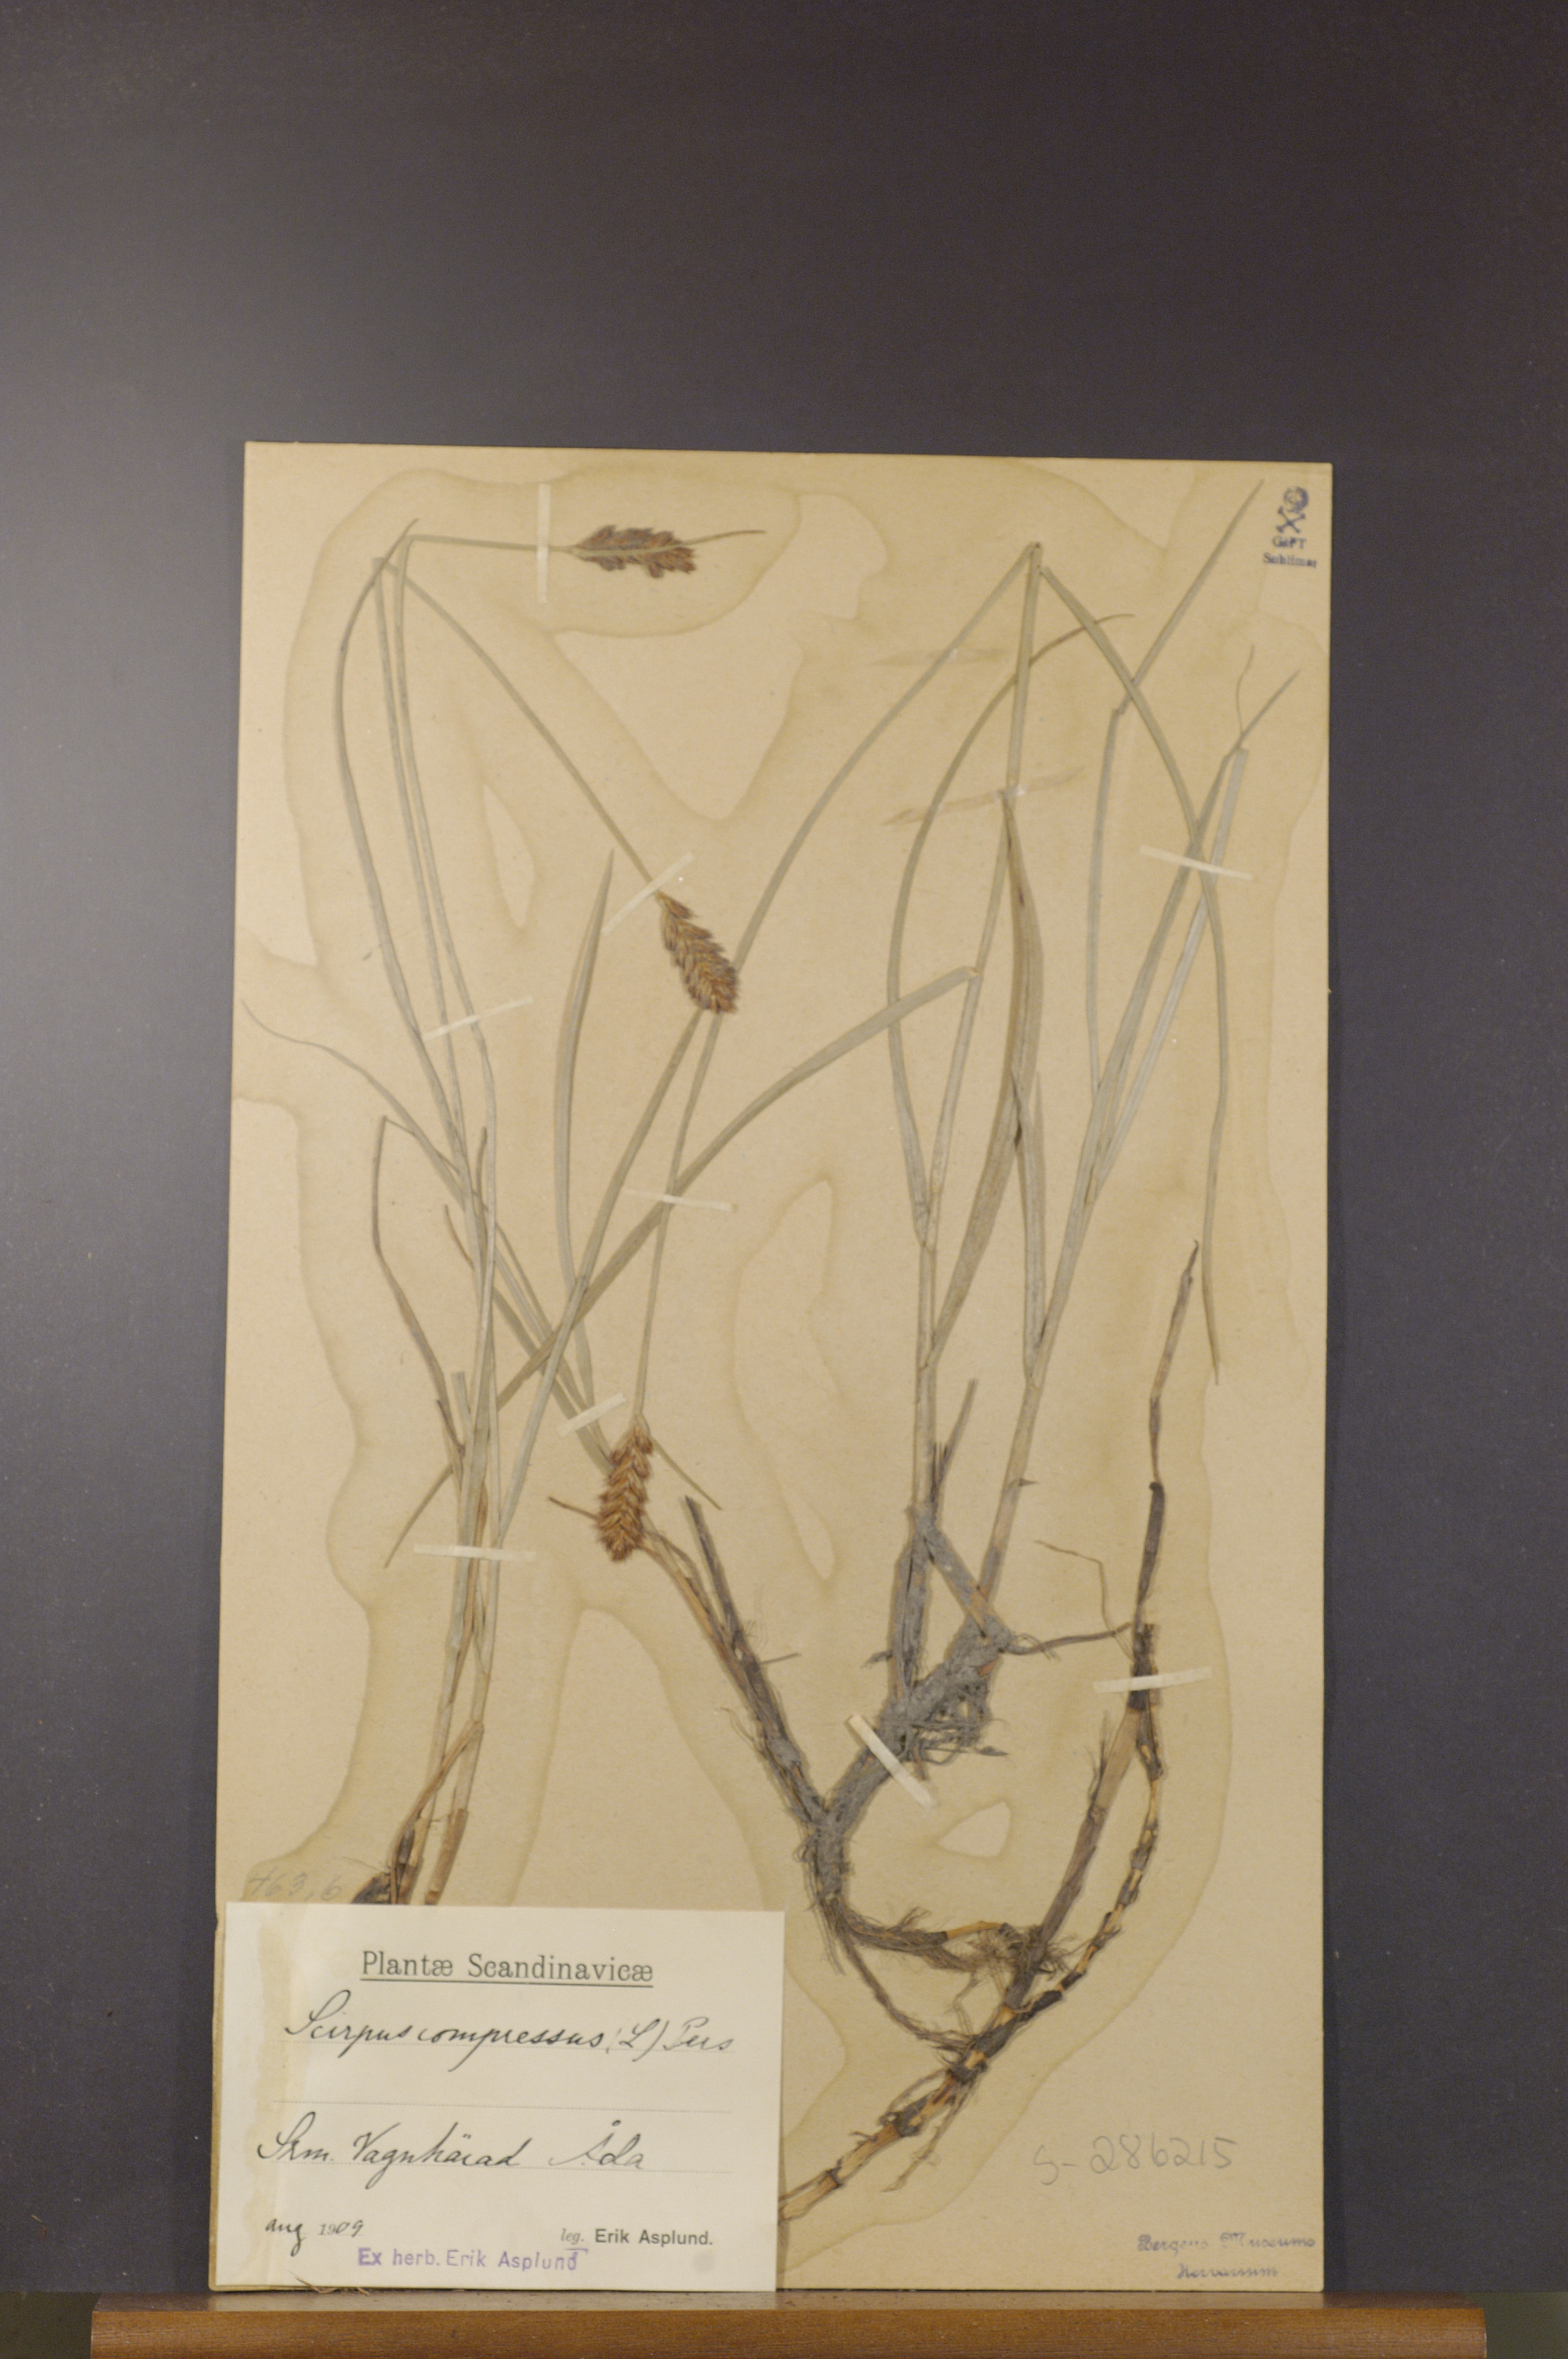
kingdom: Plantae
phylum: Tracheophyta
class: Liliopsida
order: Poales
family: Cyperaceae
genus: Blysmus
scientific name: Blysmus compressus
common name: Flat-sedge
